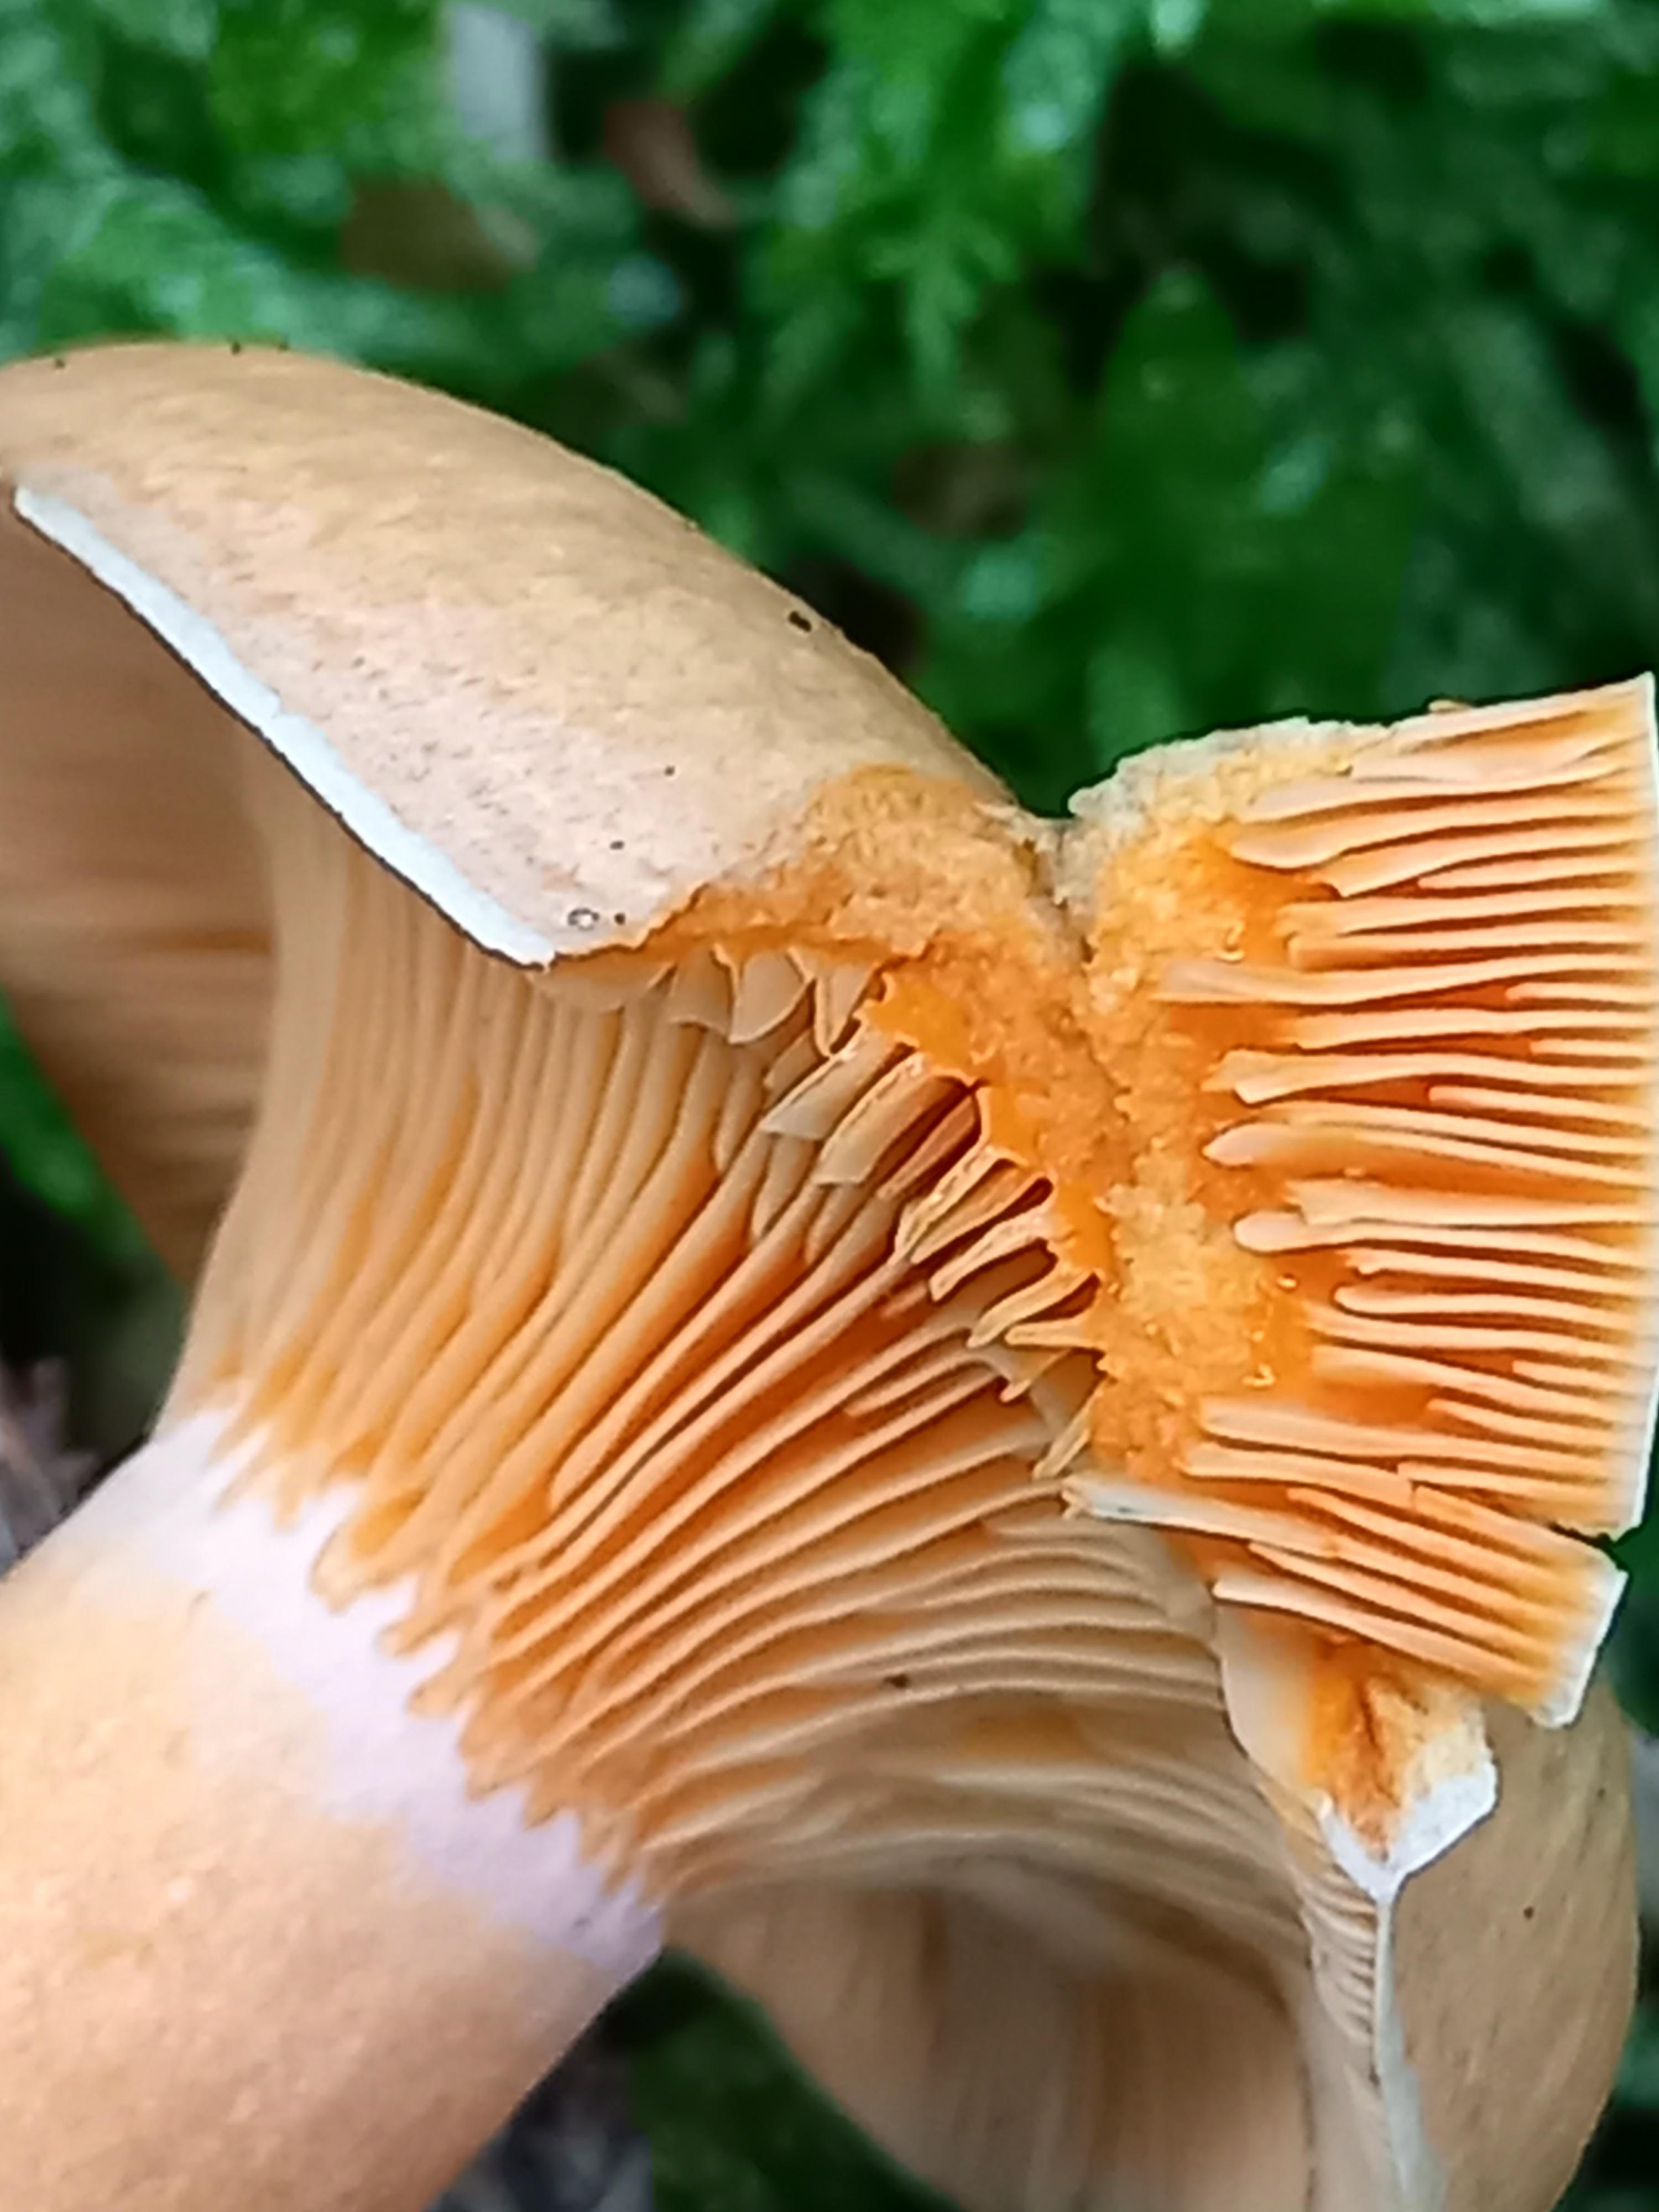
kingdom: Fungi
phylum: Basidiomycota
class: Agaricomycetes
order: Russulales
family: Russulaceae
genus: Lactarius
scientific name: Lactarius deterrimus
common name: gran-mælkehat
